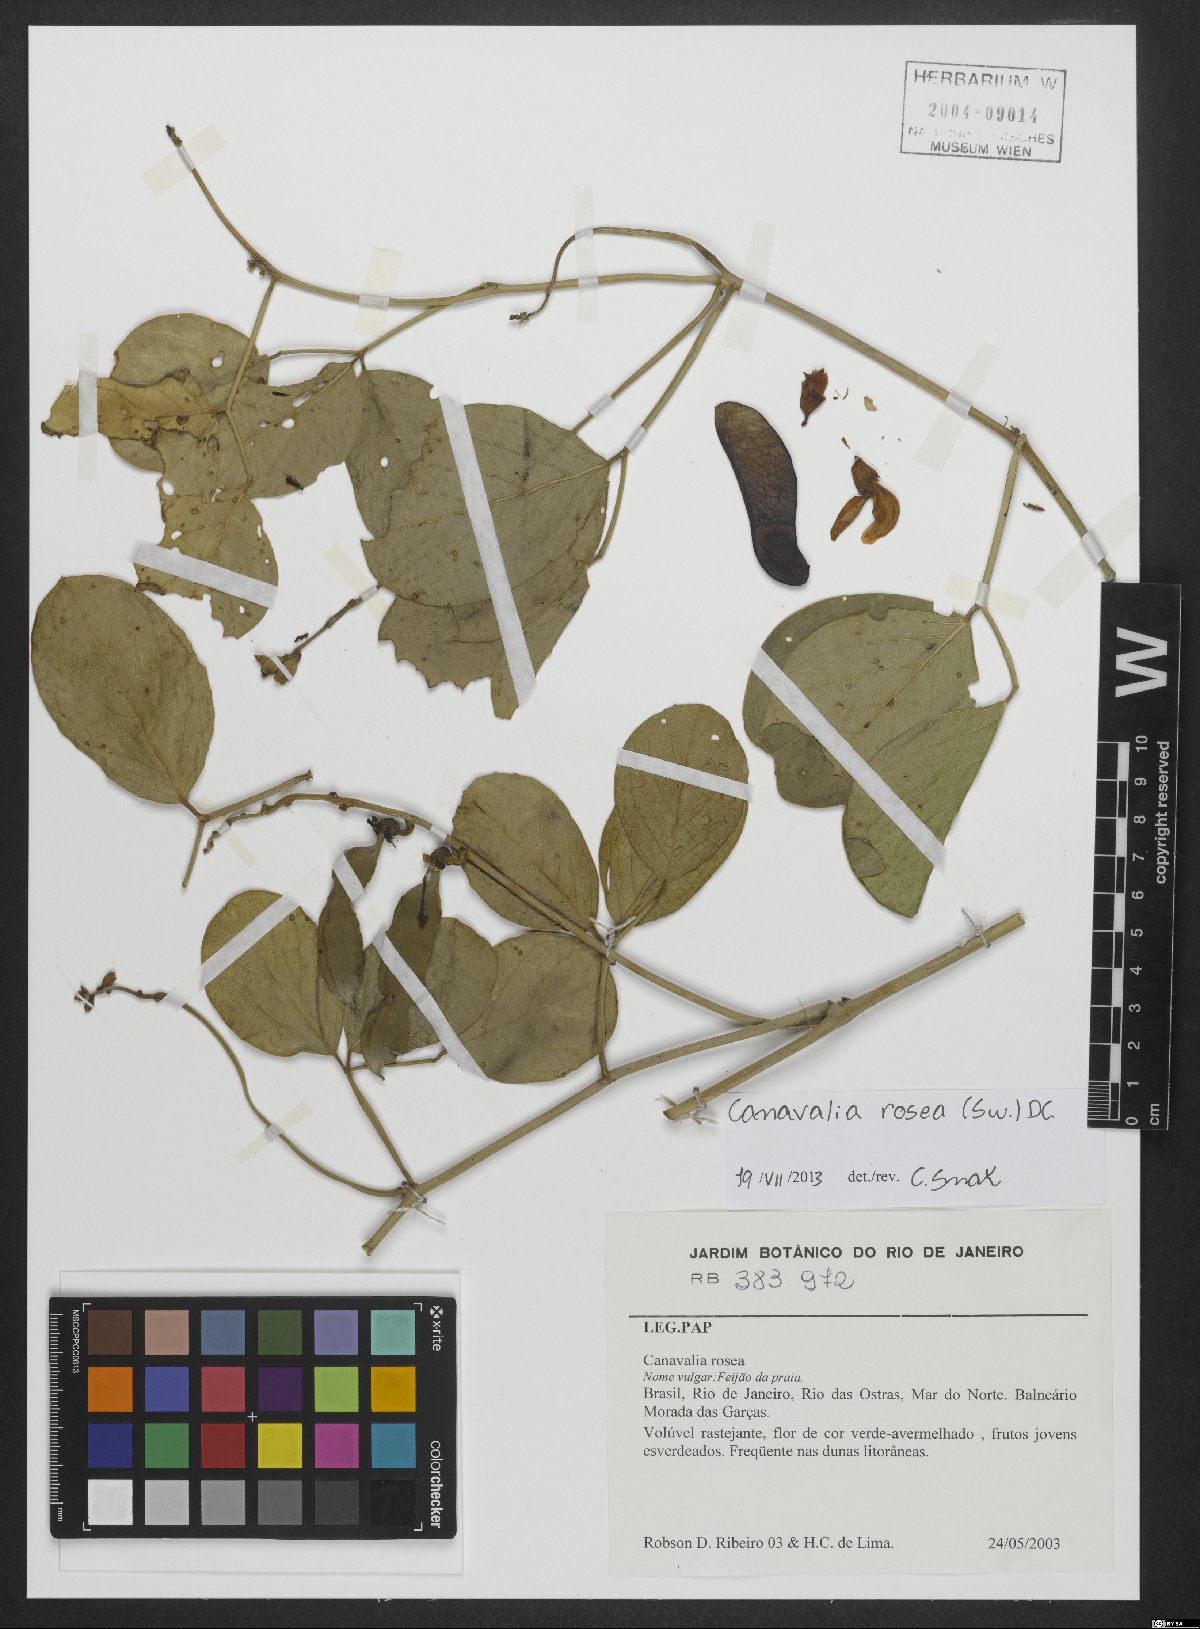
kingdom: Plantae
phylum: Tracheophyta
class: Magnoliopsida
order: Fabales
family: Fabaceae
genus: Canavalia
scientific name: Canavalia rosea
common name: Beach-bean
